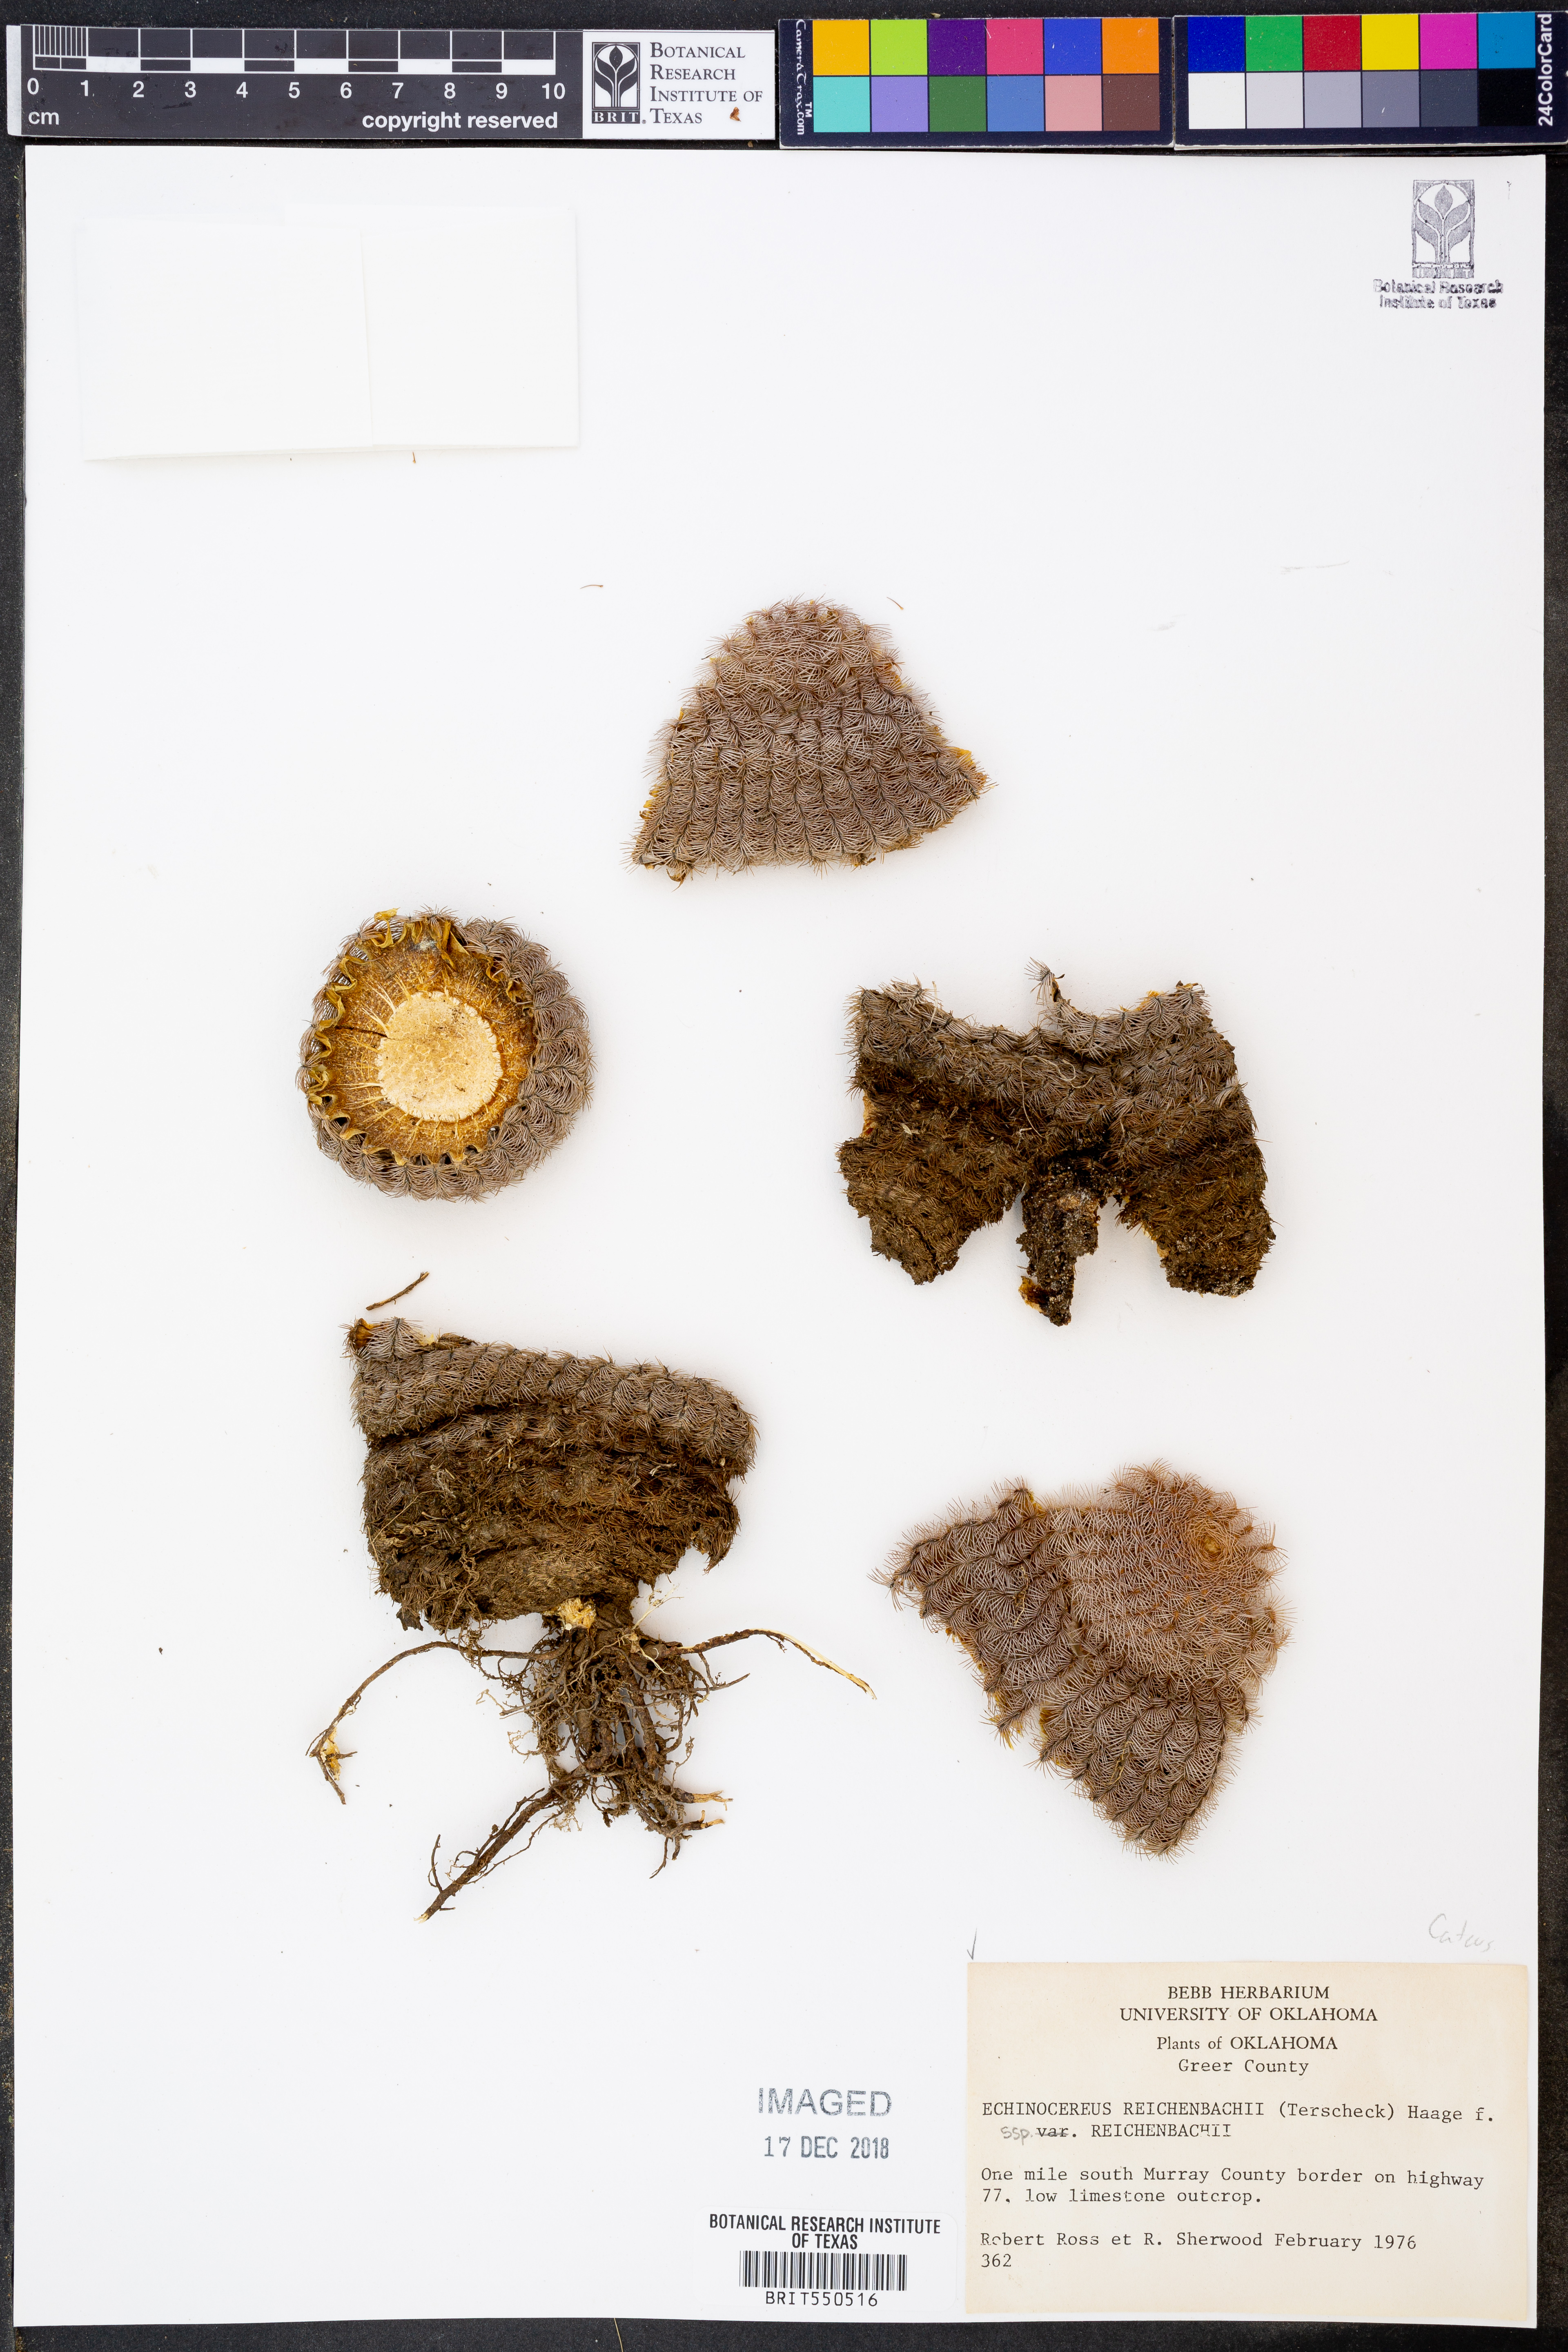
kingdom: Plantae
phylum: Tracheophyta
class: Magnoliopsida
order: Caryophyllales
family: Cactaceae
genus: Echinocereus
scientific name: Echinocereus reichenbachii
